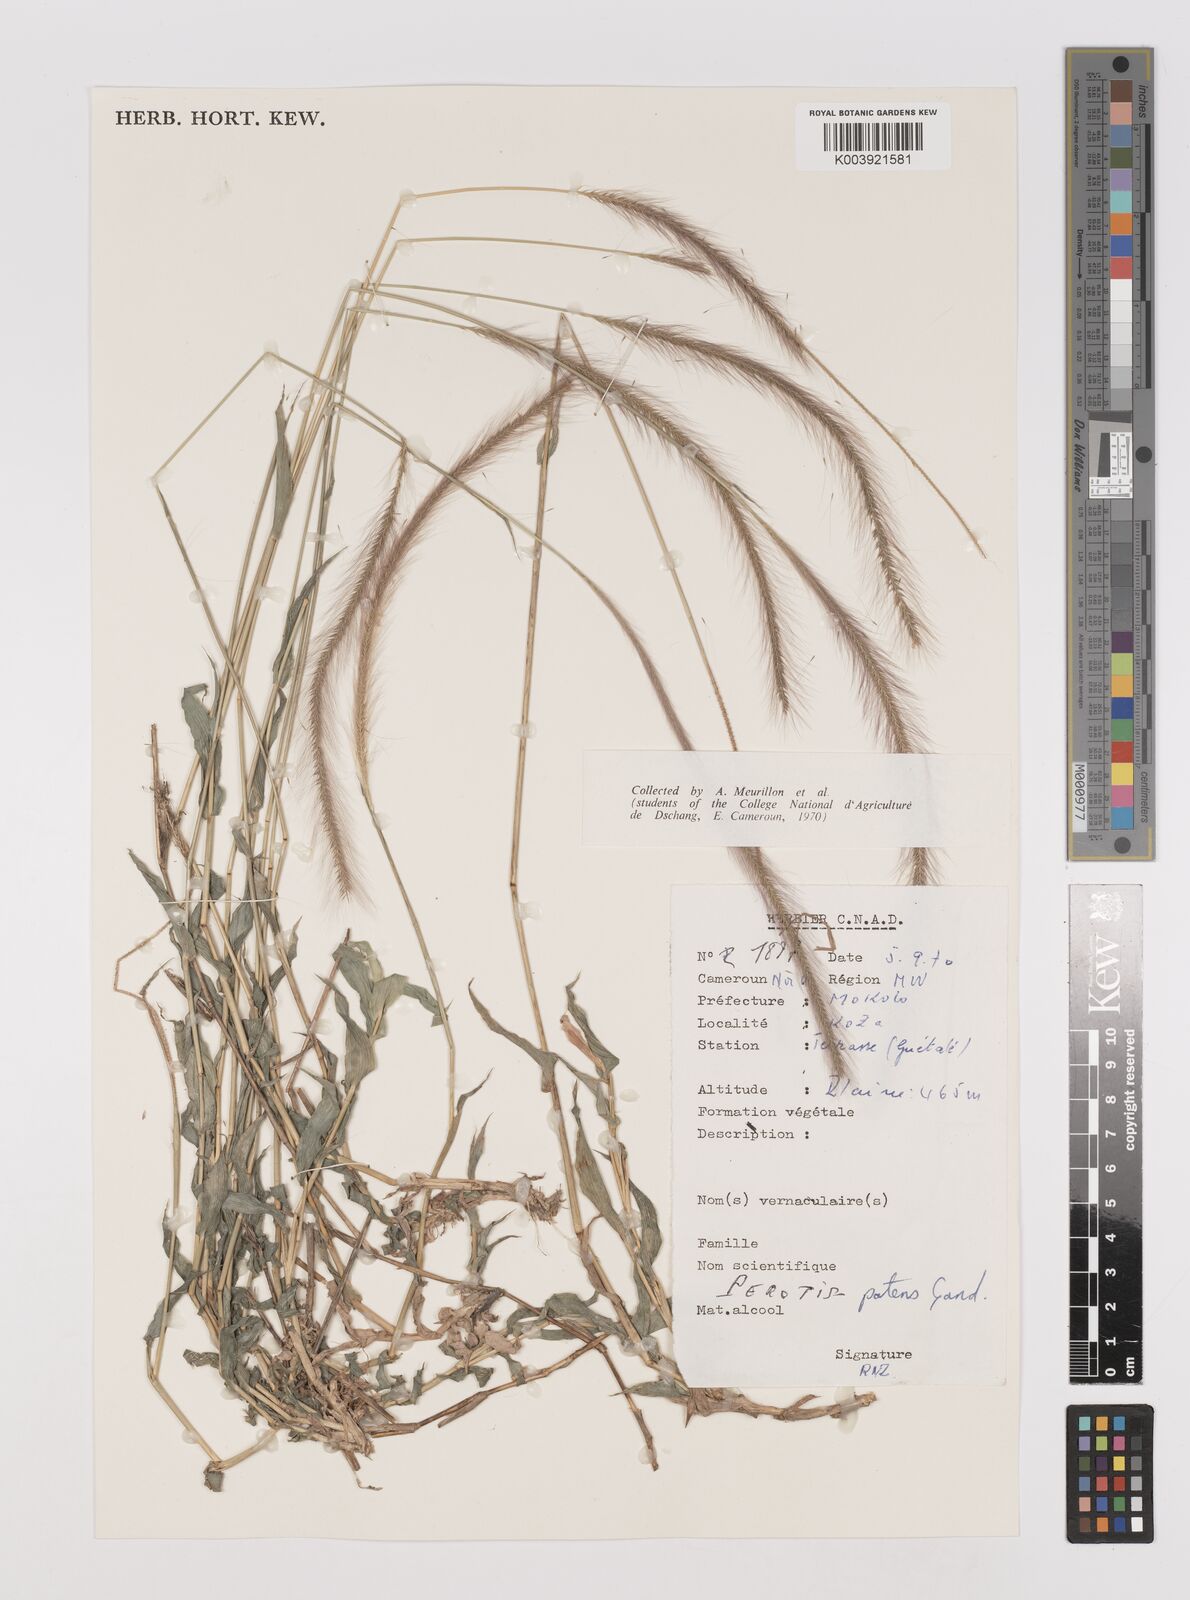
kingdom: Plantae
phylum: Tracheophyta
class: Liliopsida
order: Poales
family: Poaceae
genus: Perotis
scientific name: Perotis patens
